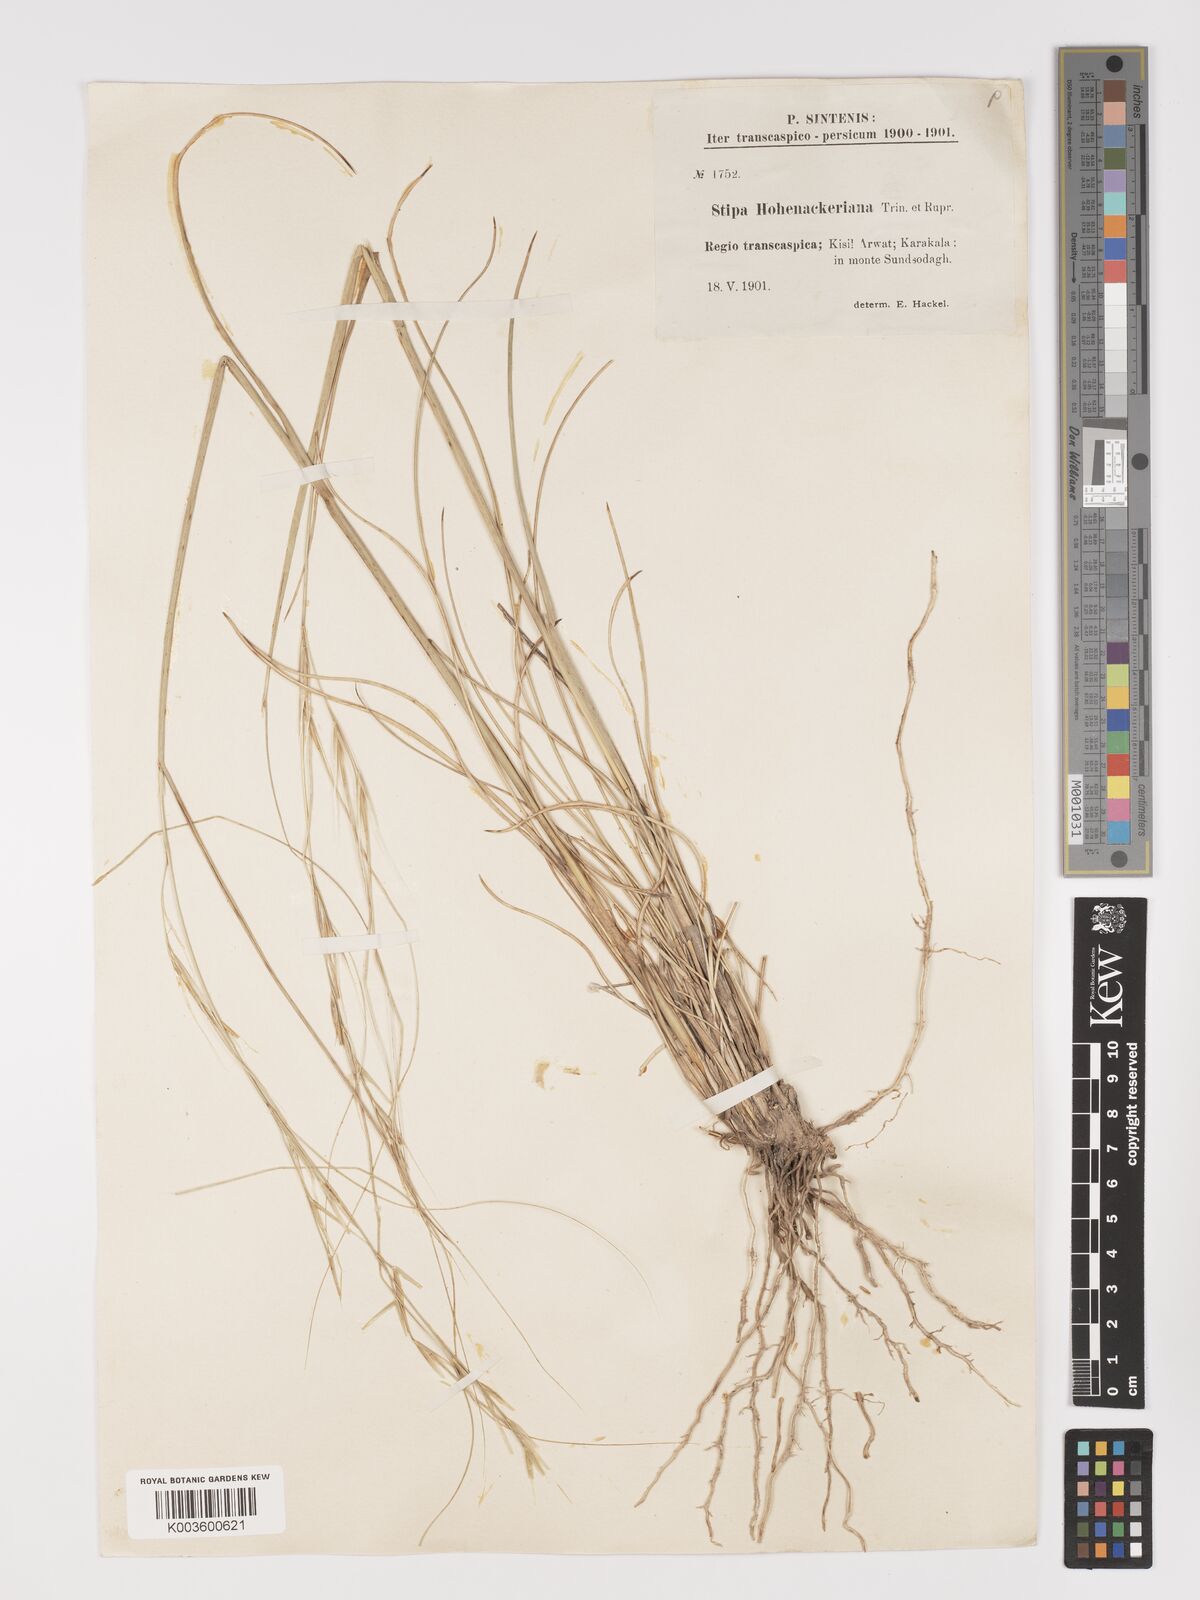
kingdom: Plantae
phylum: Tracheophyta
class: Liliopsida
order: Poales
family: Poaceae
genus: Stipa
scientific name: Stipa hohenackeriana
